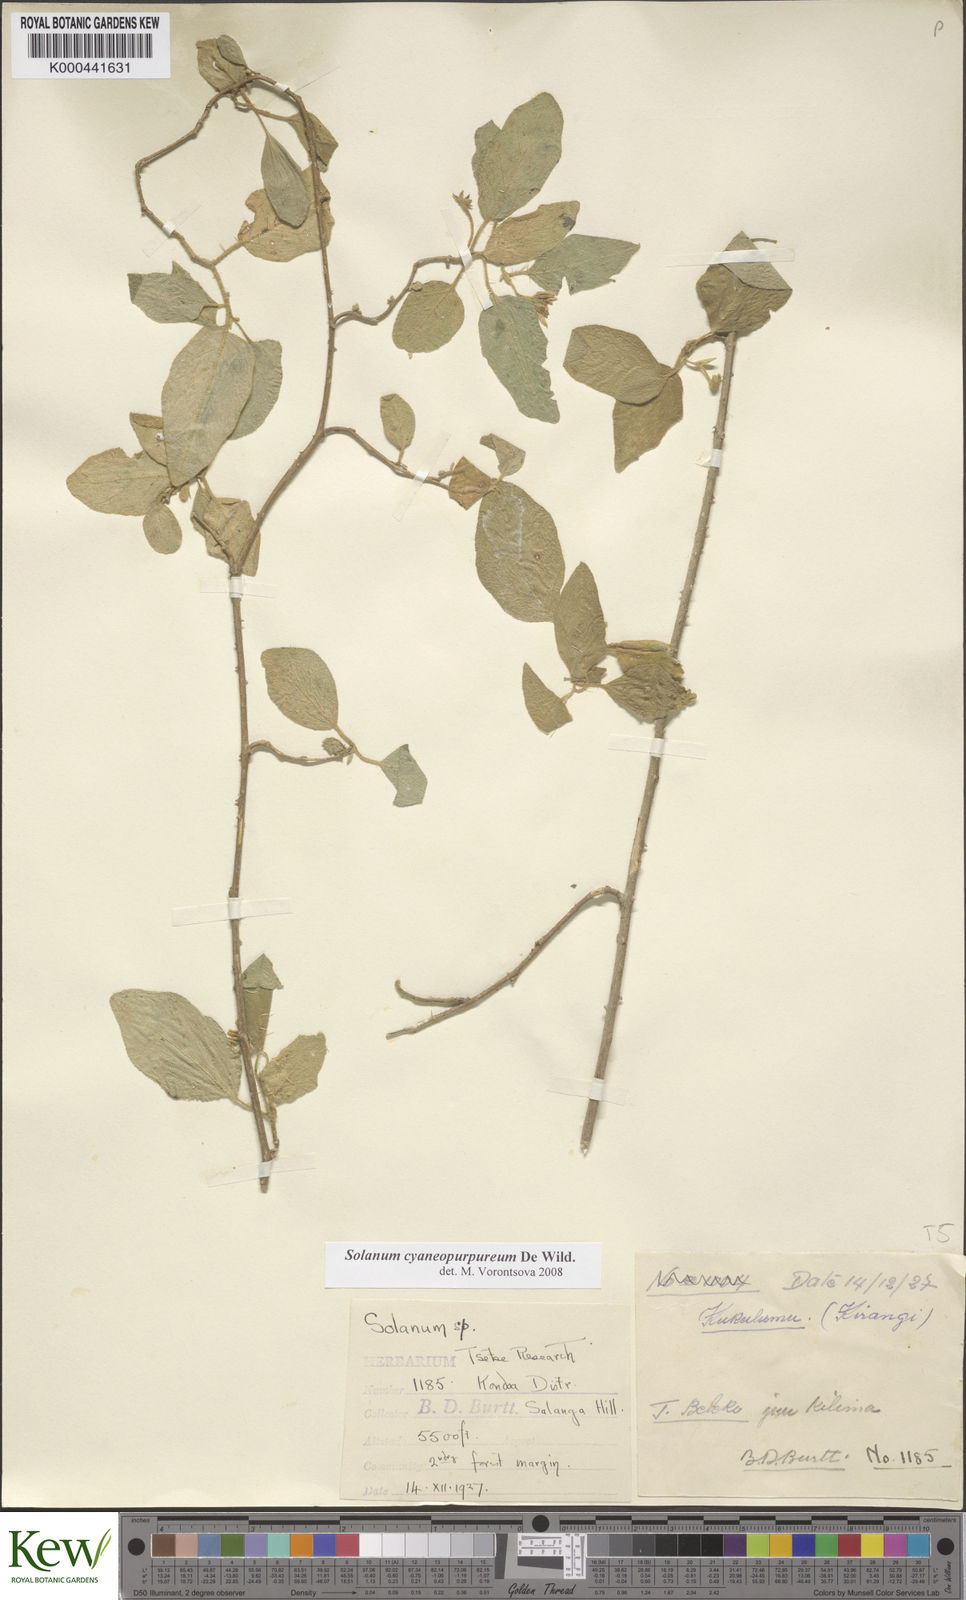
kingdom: Plantae
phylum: Tracheophyta
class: Magnoliopsida
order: Solanales
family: Solanaceae
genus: Solanum
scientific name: Solanum cyaneopurpureum
